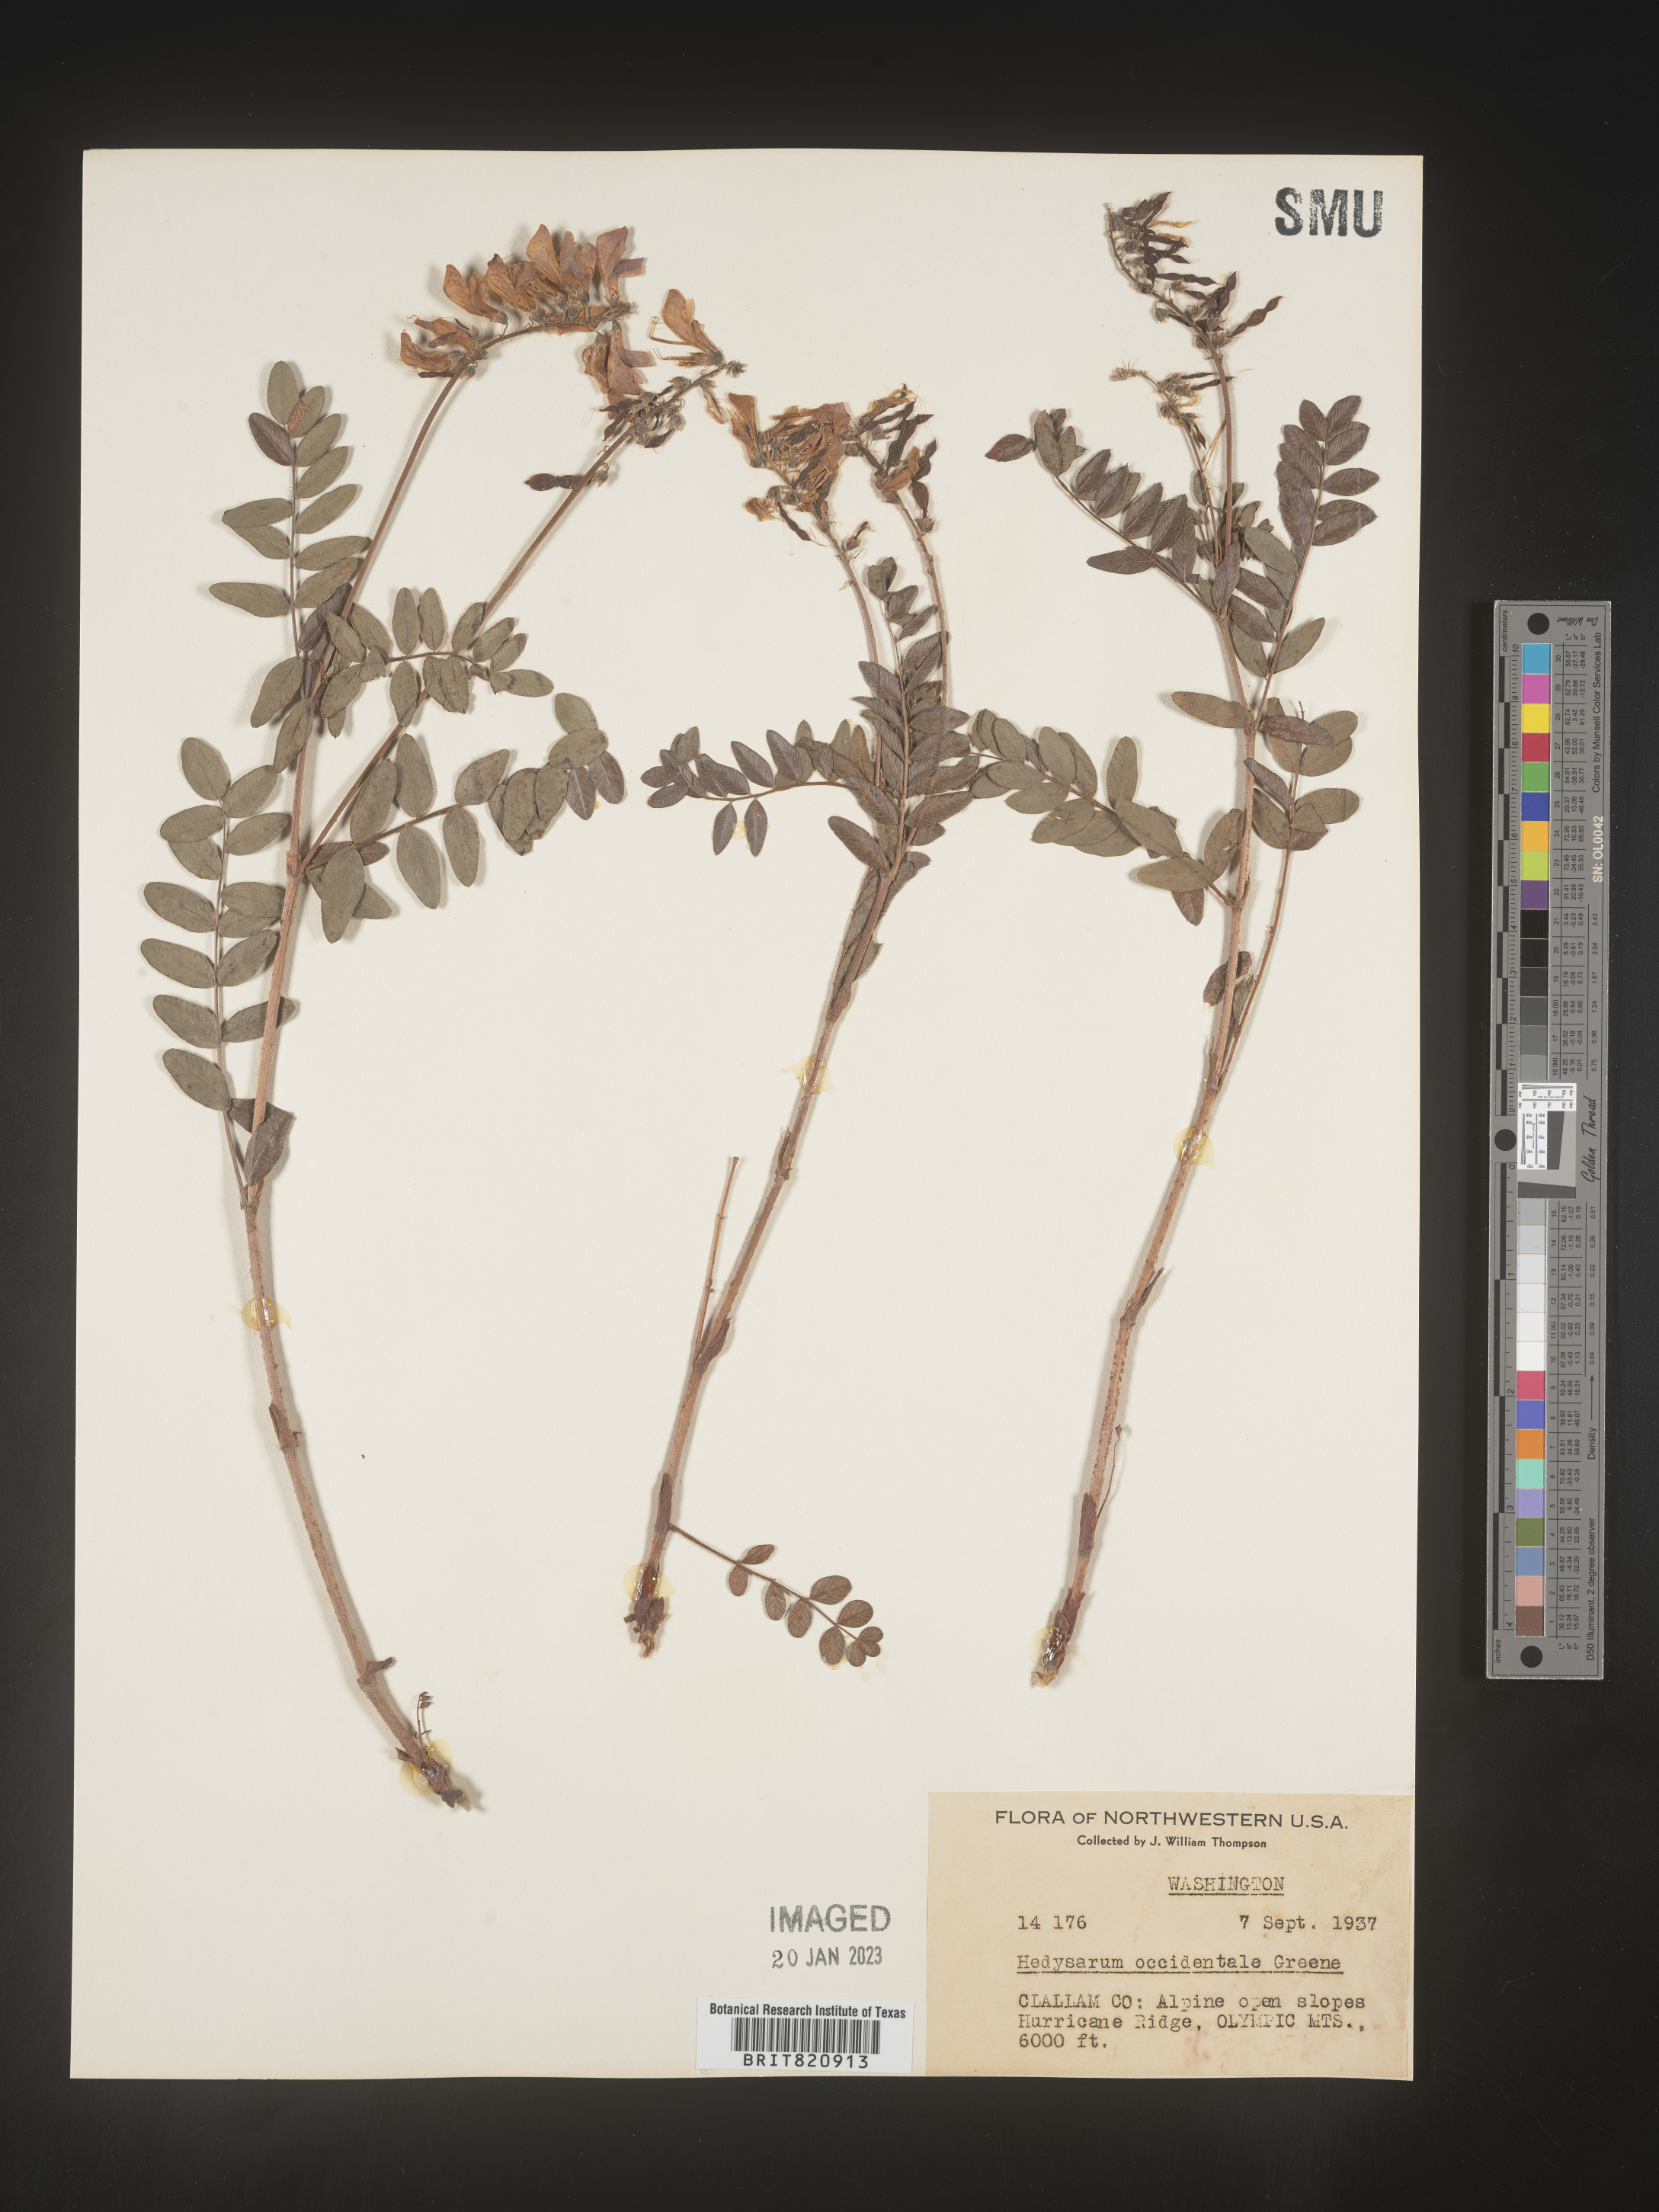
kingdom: Plantae
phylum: Tracheophyta
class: Magnoliopsida
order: Fabales
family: Fabaceae
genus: Hedysarum
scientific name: Hedysarum occidentale
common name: Western hedysarum
